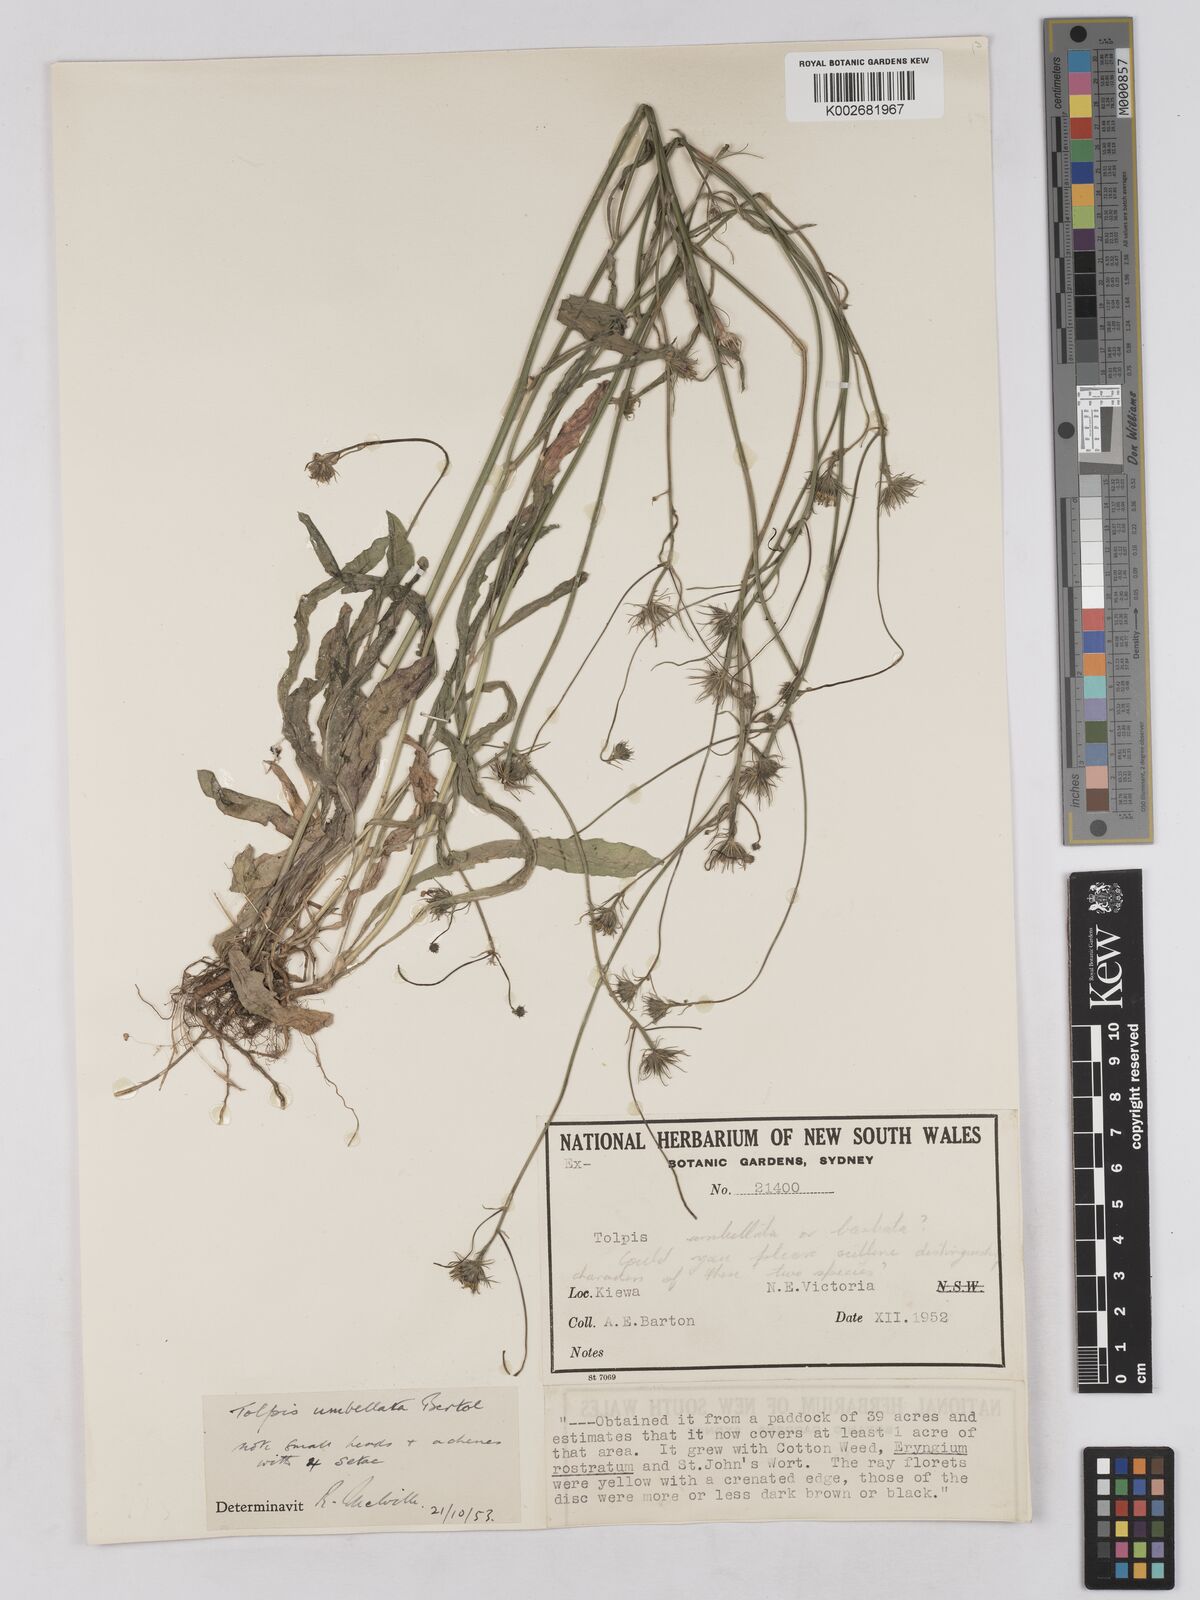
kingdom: Plantae
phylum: Tracheophyta
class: Magnoliopsida
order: Asterales
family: Asteraceae
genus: Tolpis
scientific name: Tolpis umbellata
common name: Yellow hawkweed
